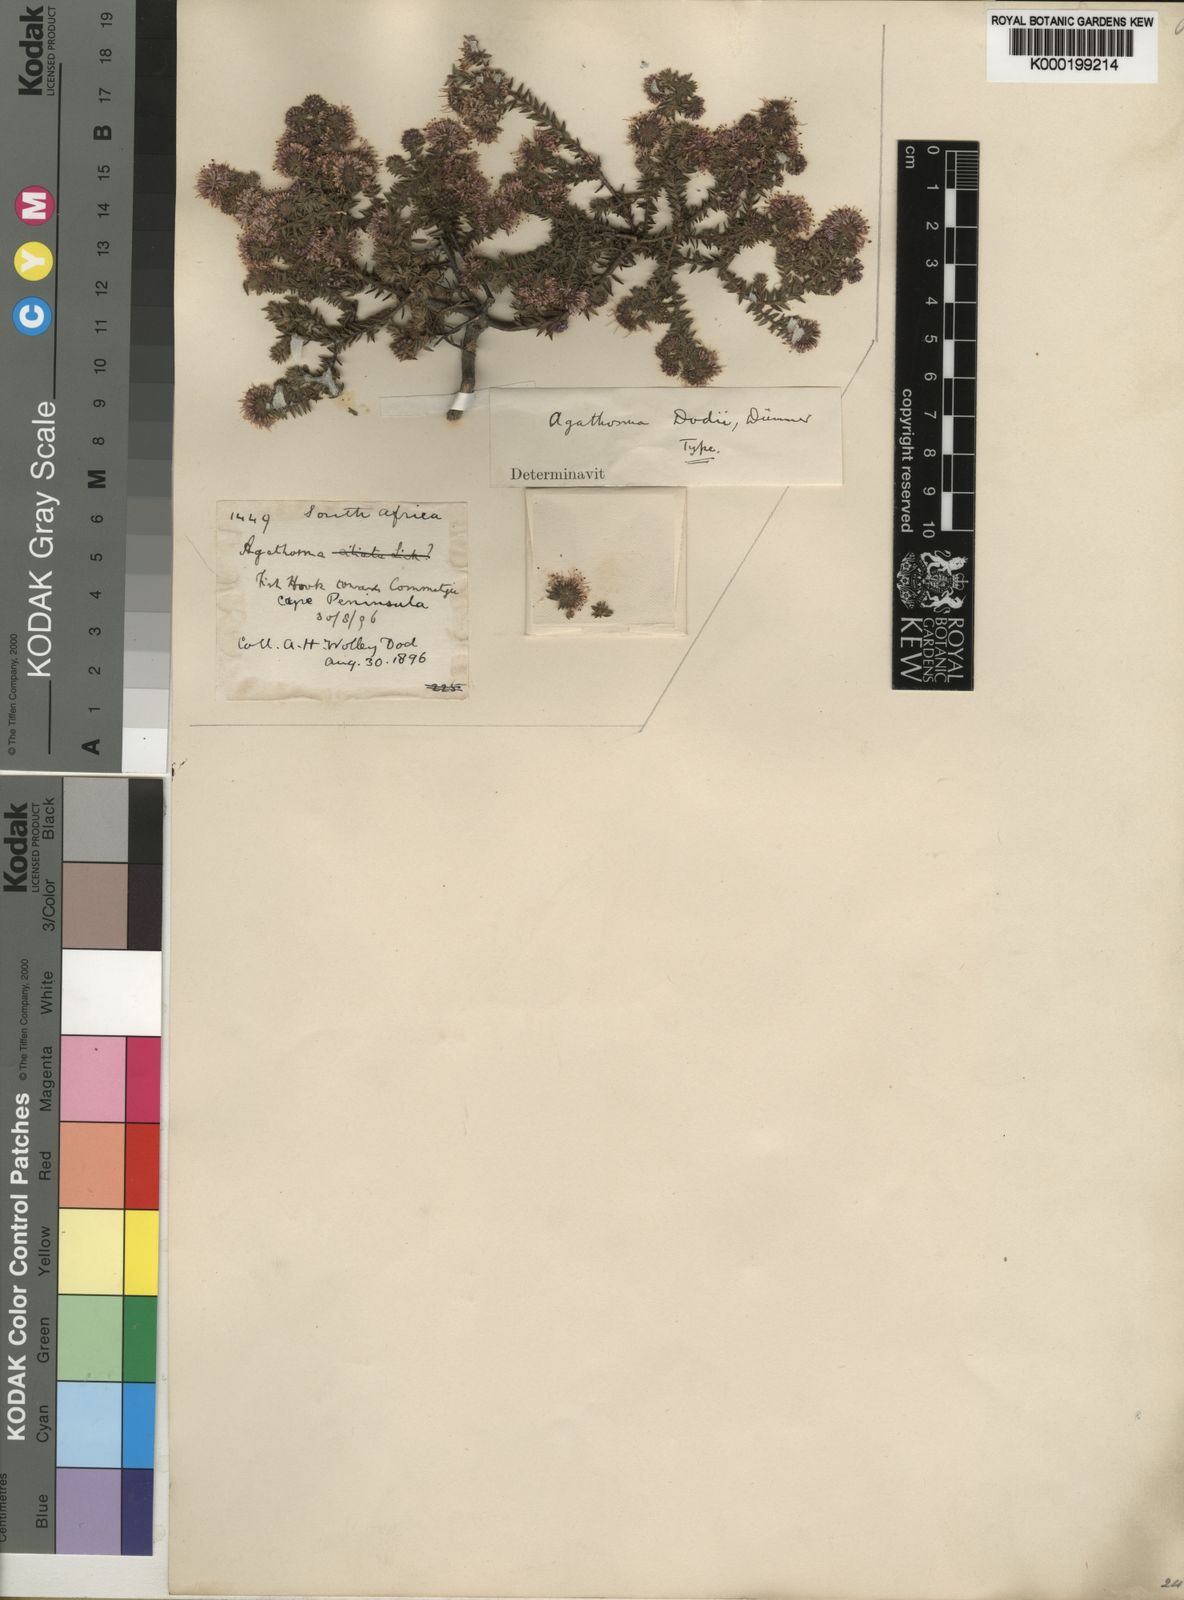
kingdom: Plantae
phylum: Tracheophyta
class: Magnoliopsida
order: Sapindales
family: Rutaceae
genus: Agathosma
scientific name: Agathosma
